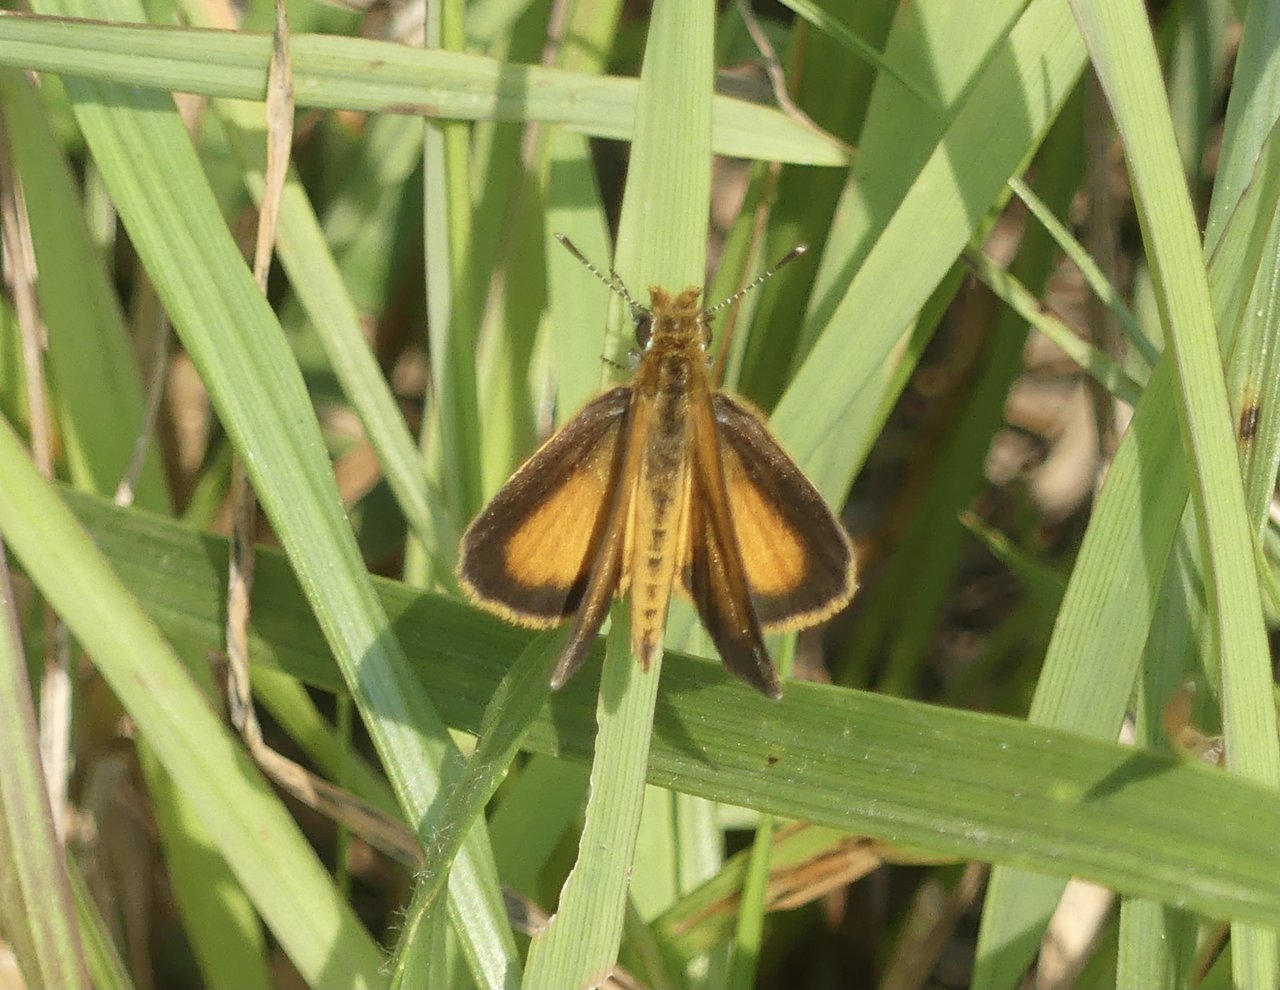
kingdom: Animalia
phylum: Arthropoda
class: Insecta
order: Lepidoptera
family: Hesperiidae
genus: Ancyloxypha
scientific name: Ancyloxypha numitor
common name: Least Skipper
